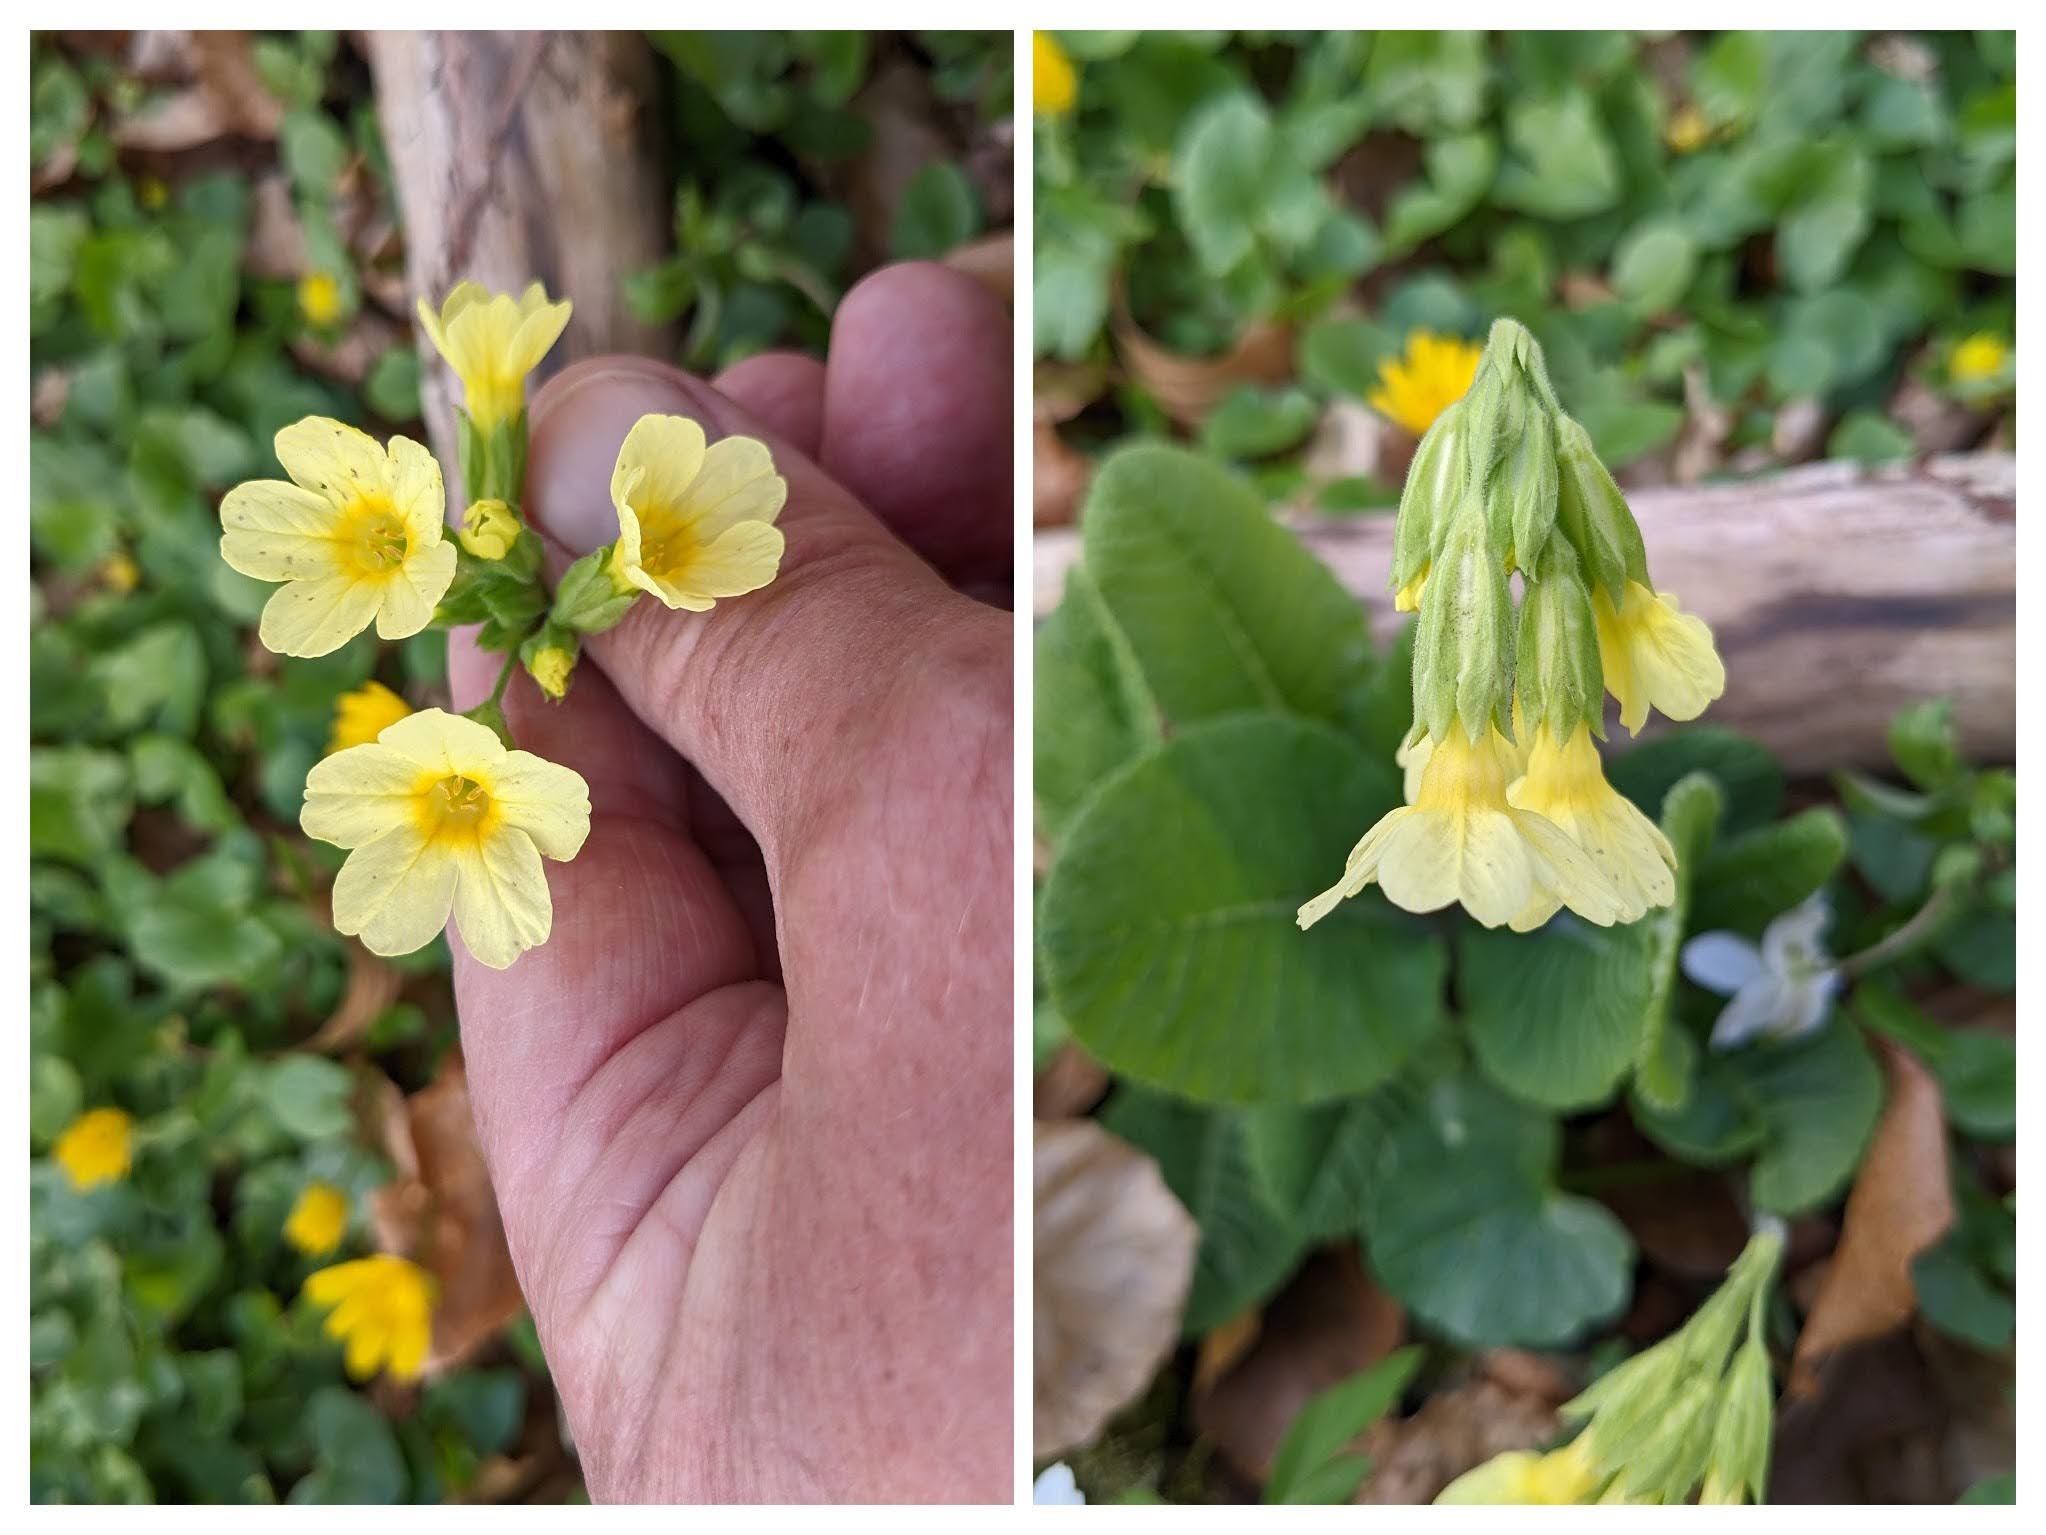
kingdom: Plantae
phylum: Tracheophyta
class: Magnoliopsida
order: Ericales
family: Primulaceae
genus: Primula
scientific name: Primula elatior
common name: Fladkravet kodriver
